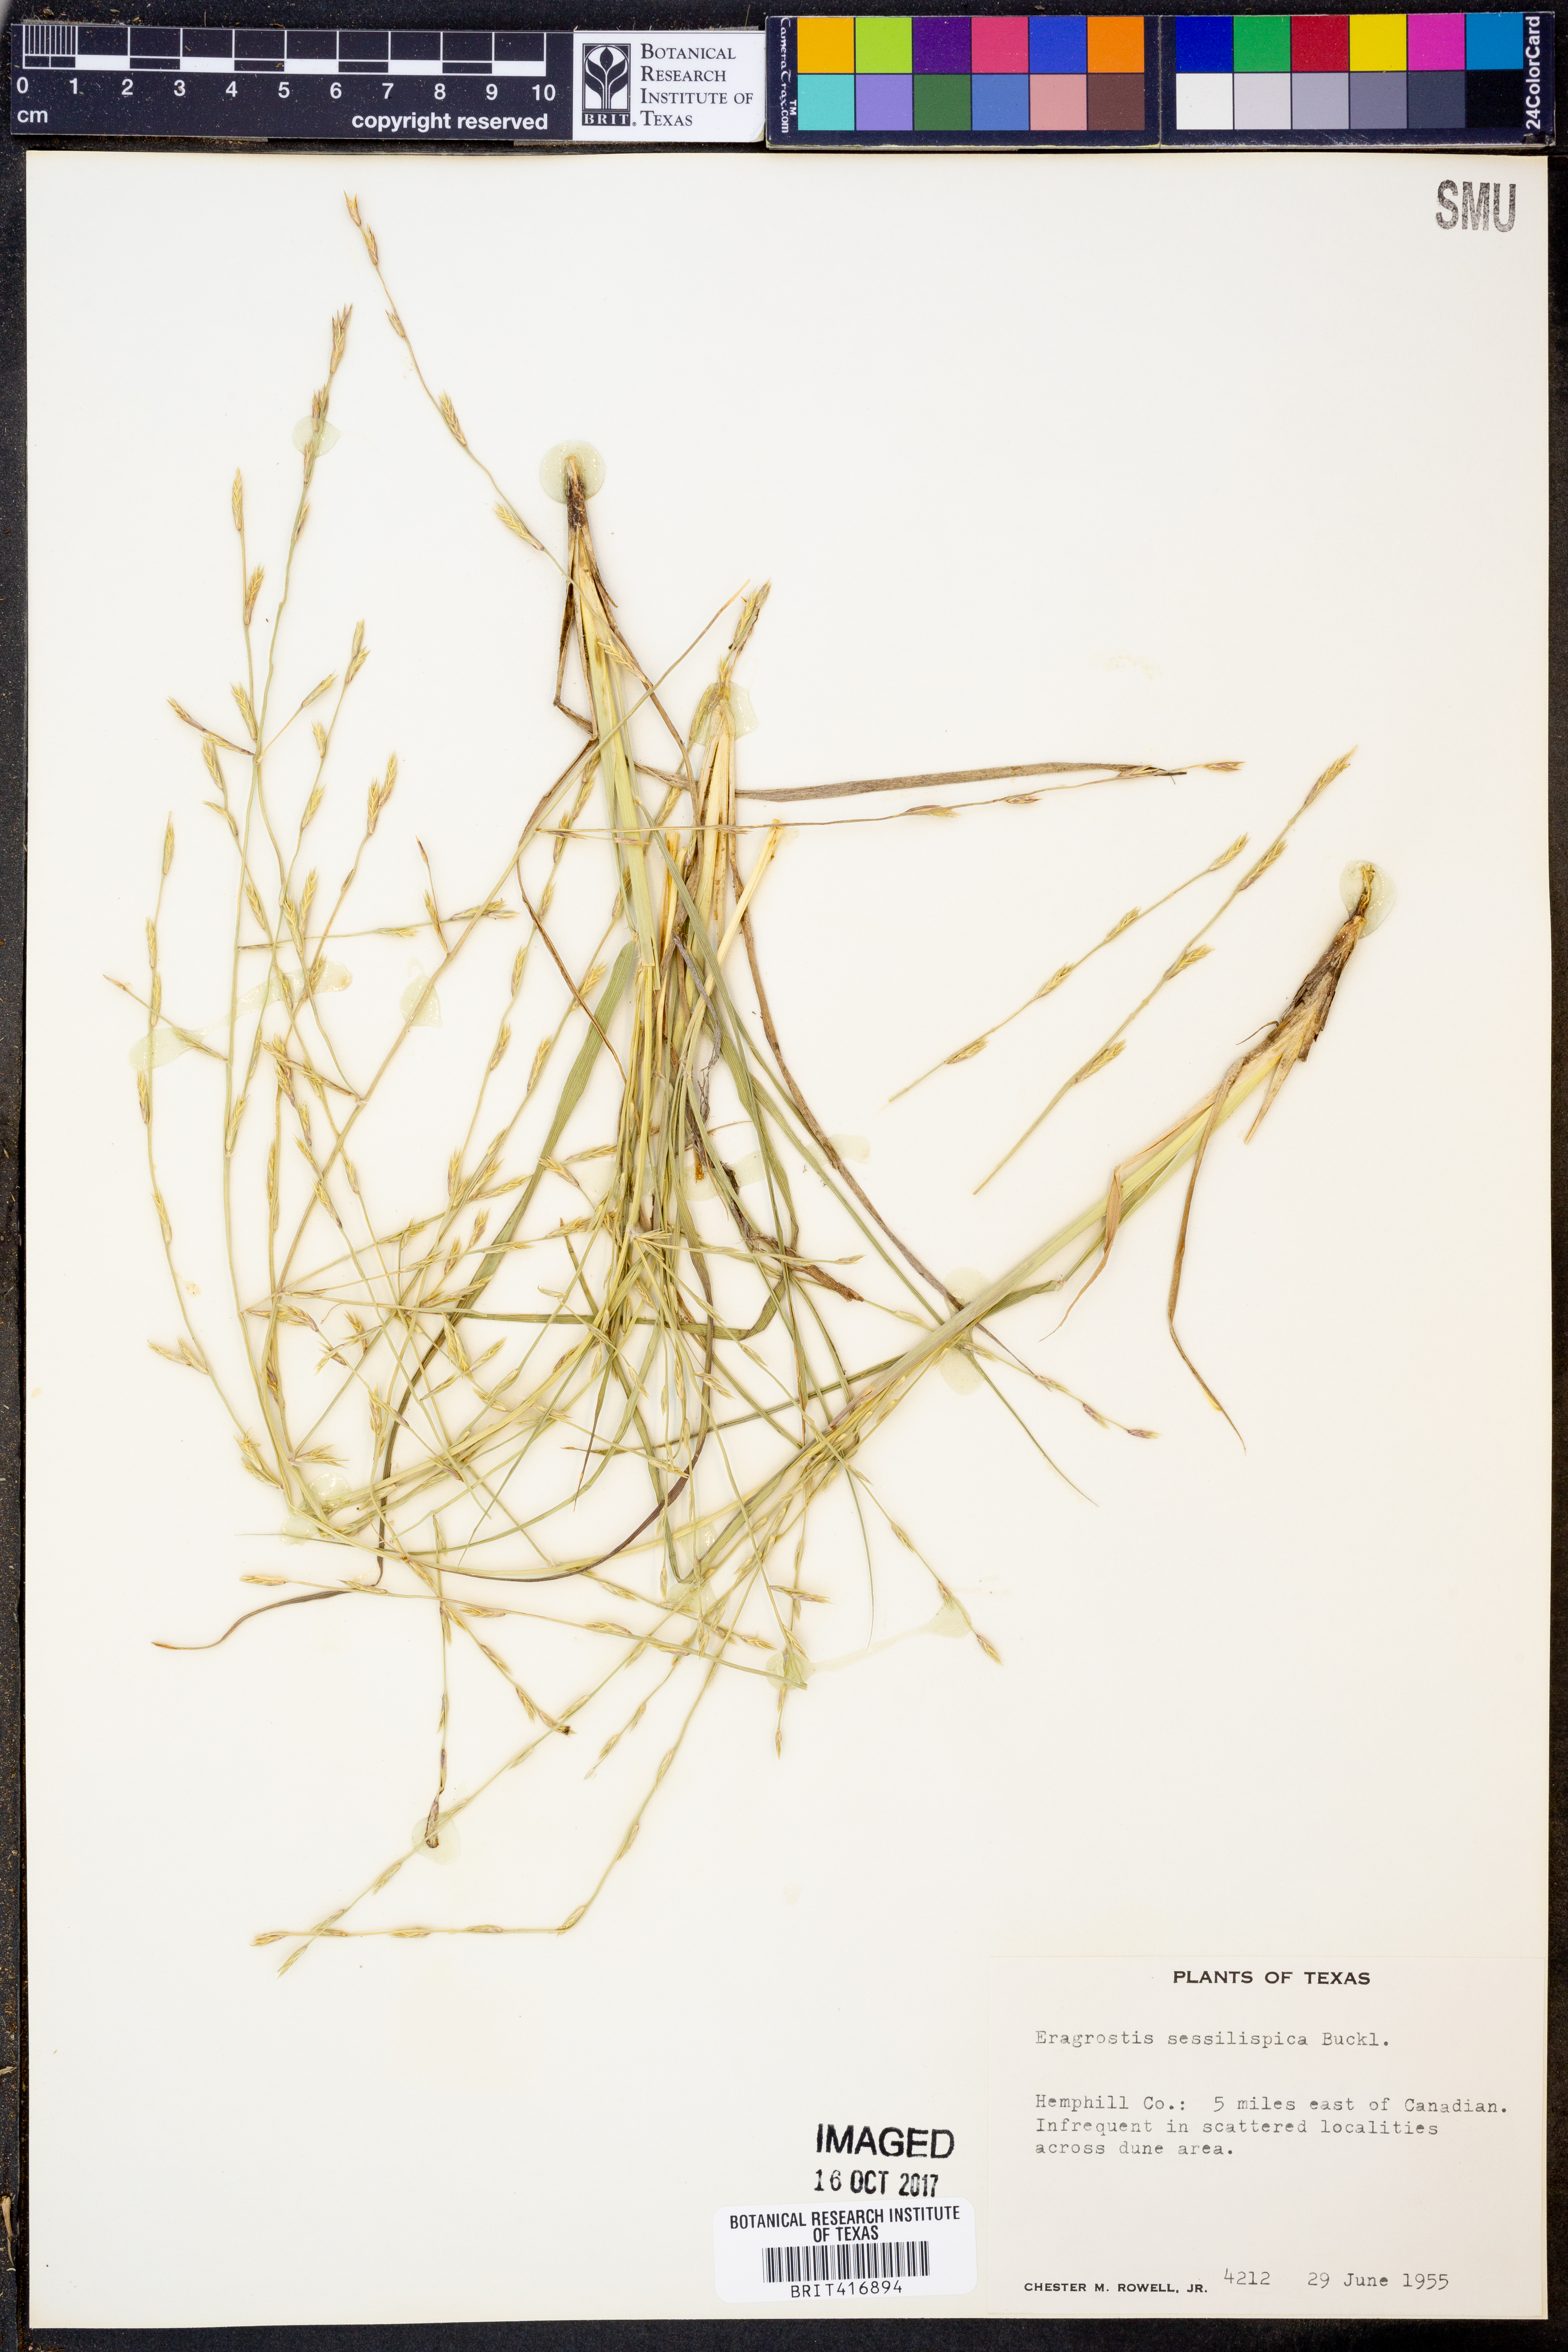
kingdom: Plantae
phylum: Tracheophyta
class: Liliopsida
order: Poales
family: Poaceae
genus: Eragrostis
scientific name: Eragrostis sessilispica
